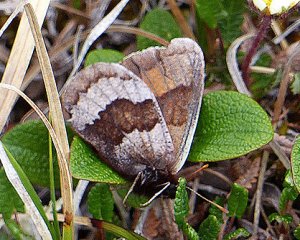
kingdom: Animalia
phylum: Arthropoda
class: Insecta
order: Lepidoptera
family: Nymphalidae
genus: Erebia
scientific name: Erebia fasciata
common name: Banded Alpine
